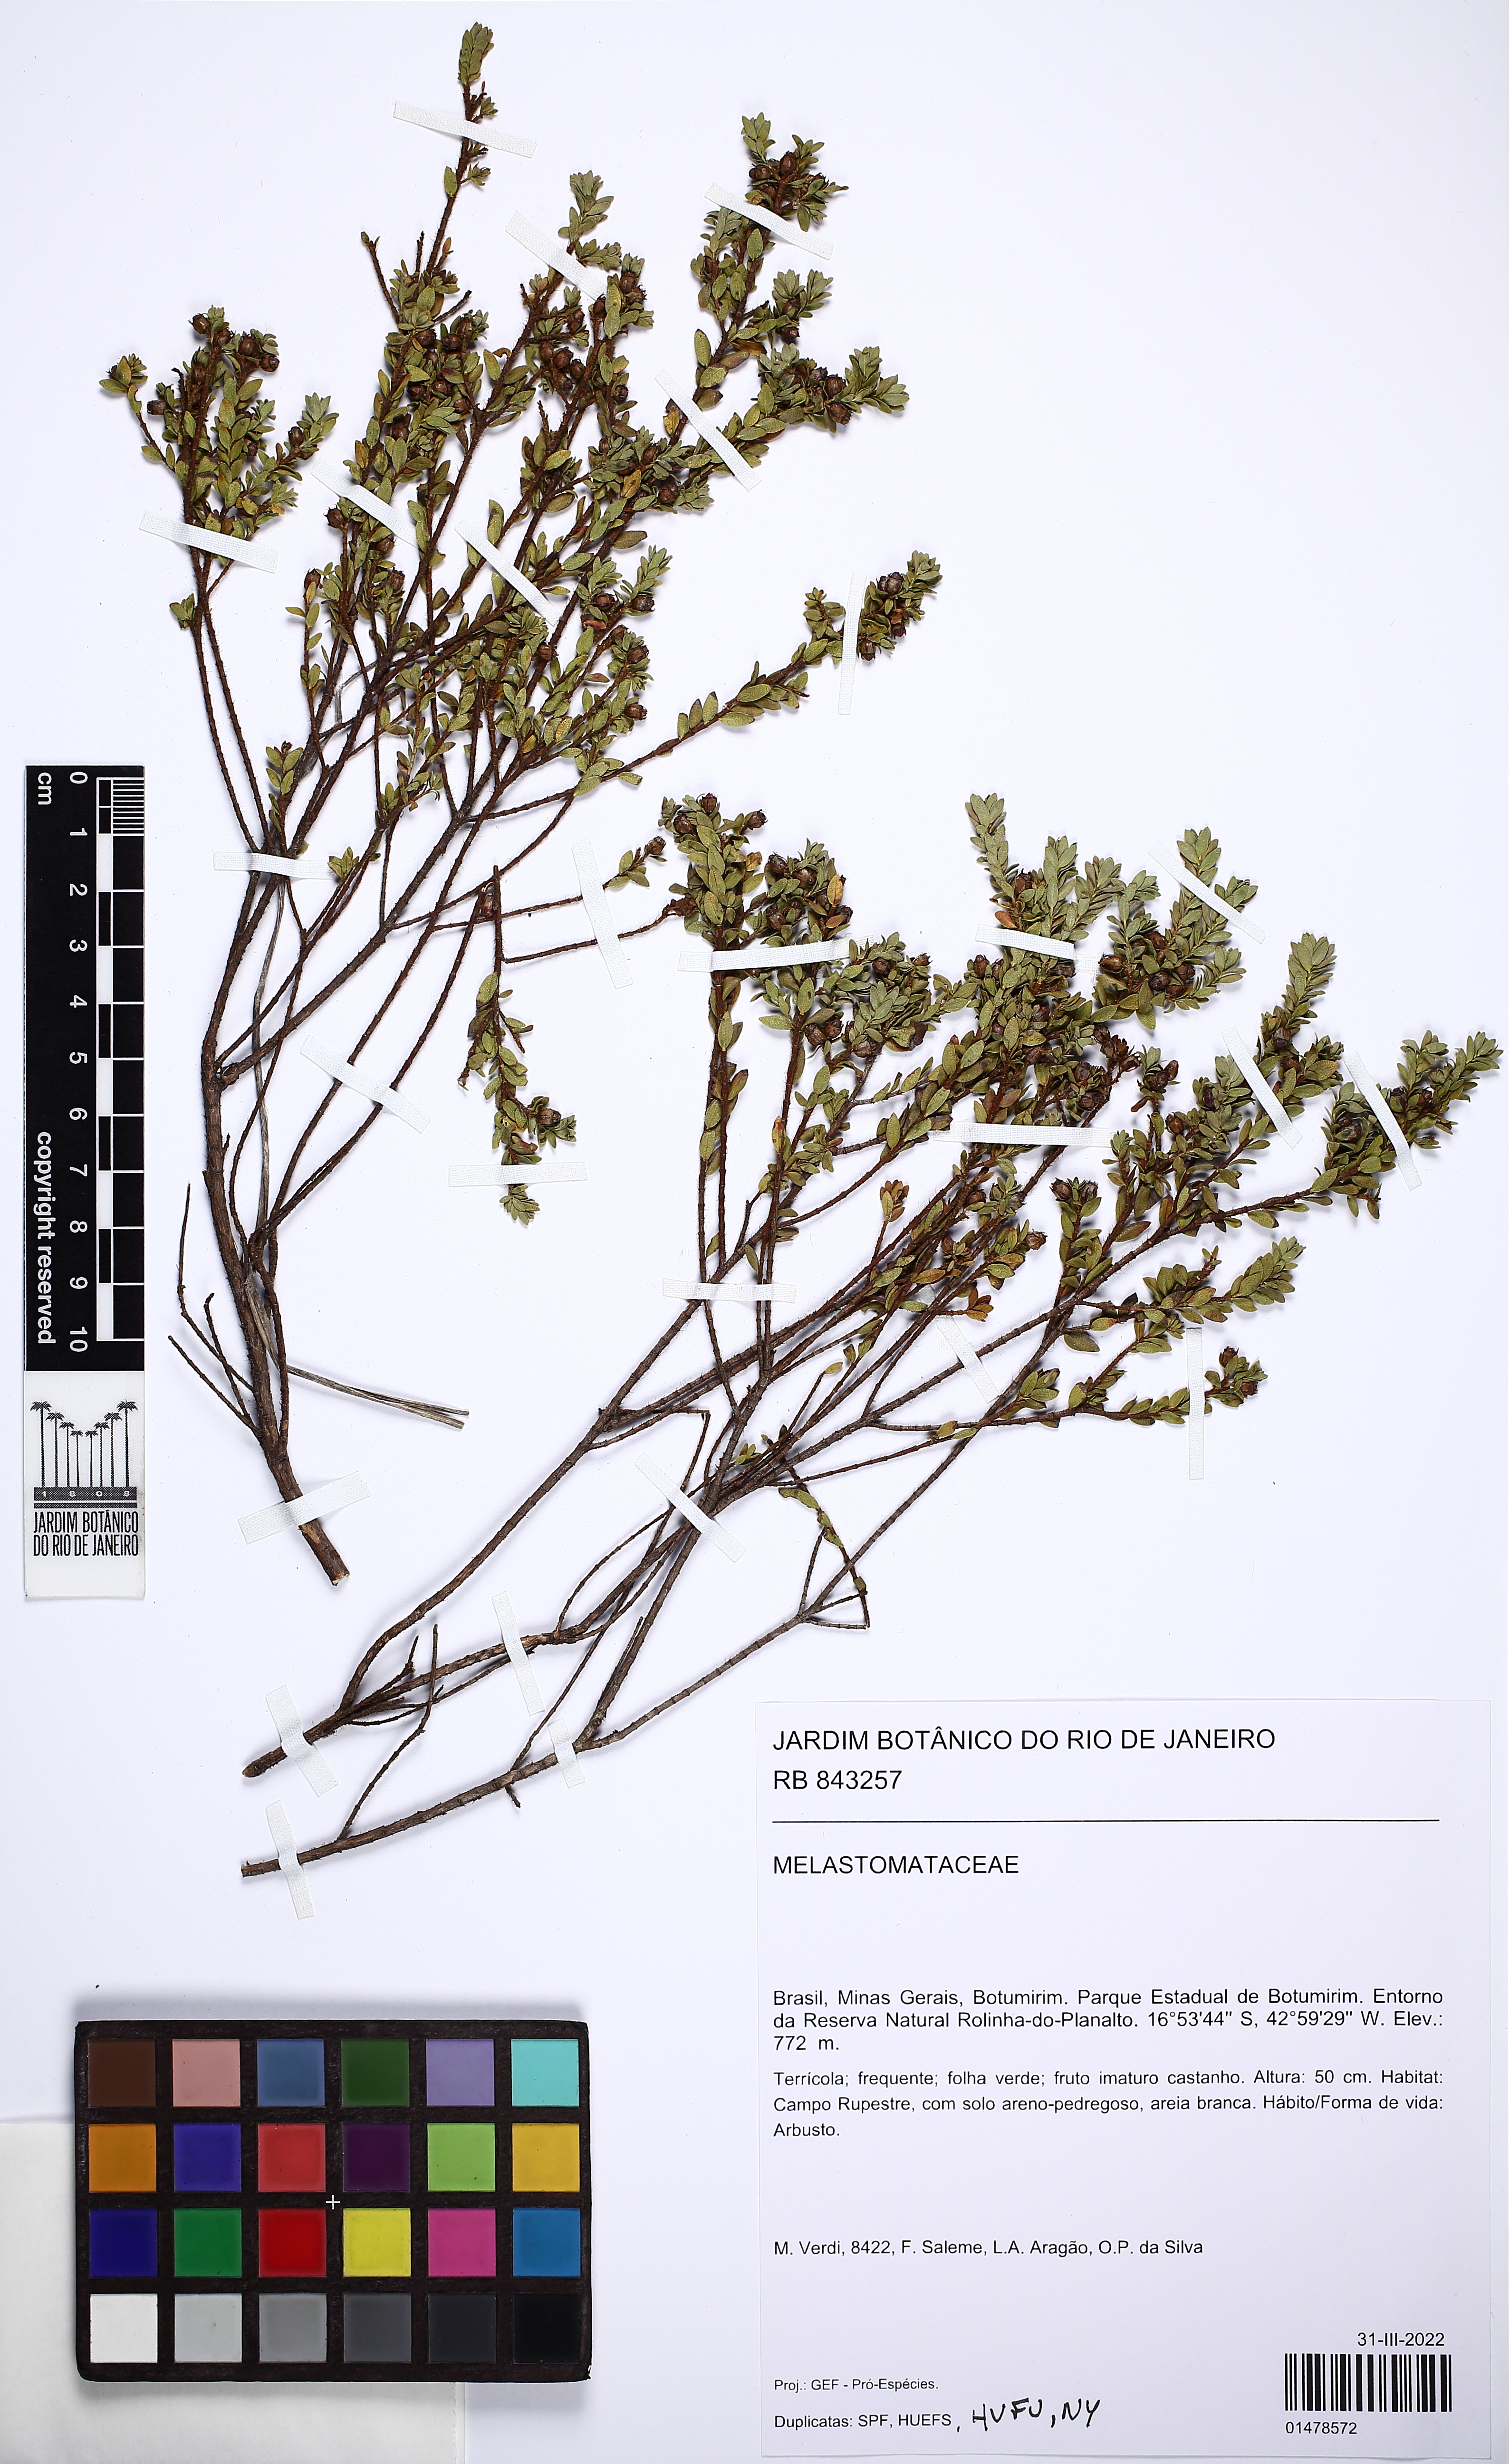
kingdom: Plantae
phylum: Tracheophyta
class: Magnoliopsida
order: Myrtales
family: Melastomataceae
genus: Microlicia
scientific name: Microlicia
